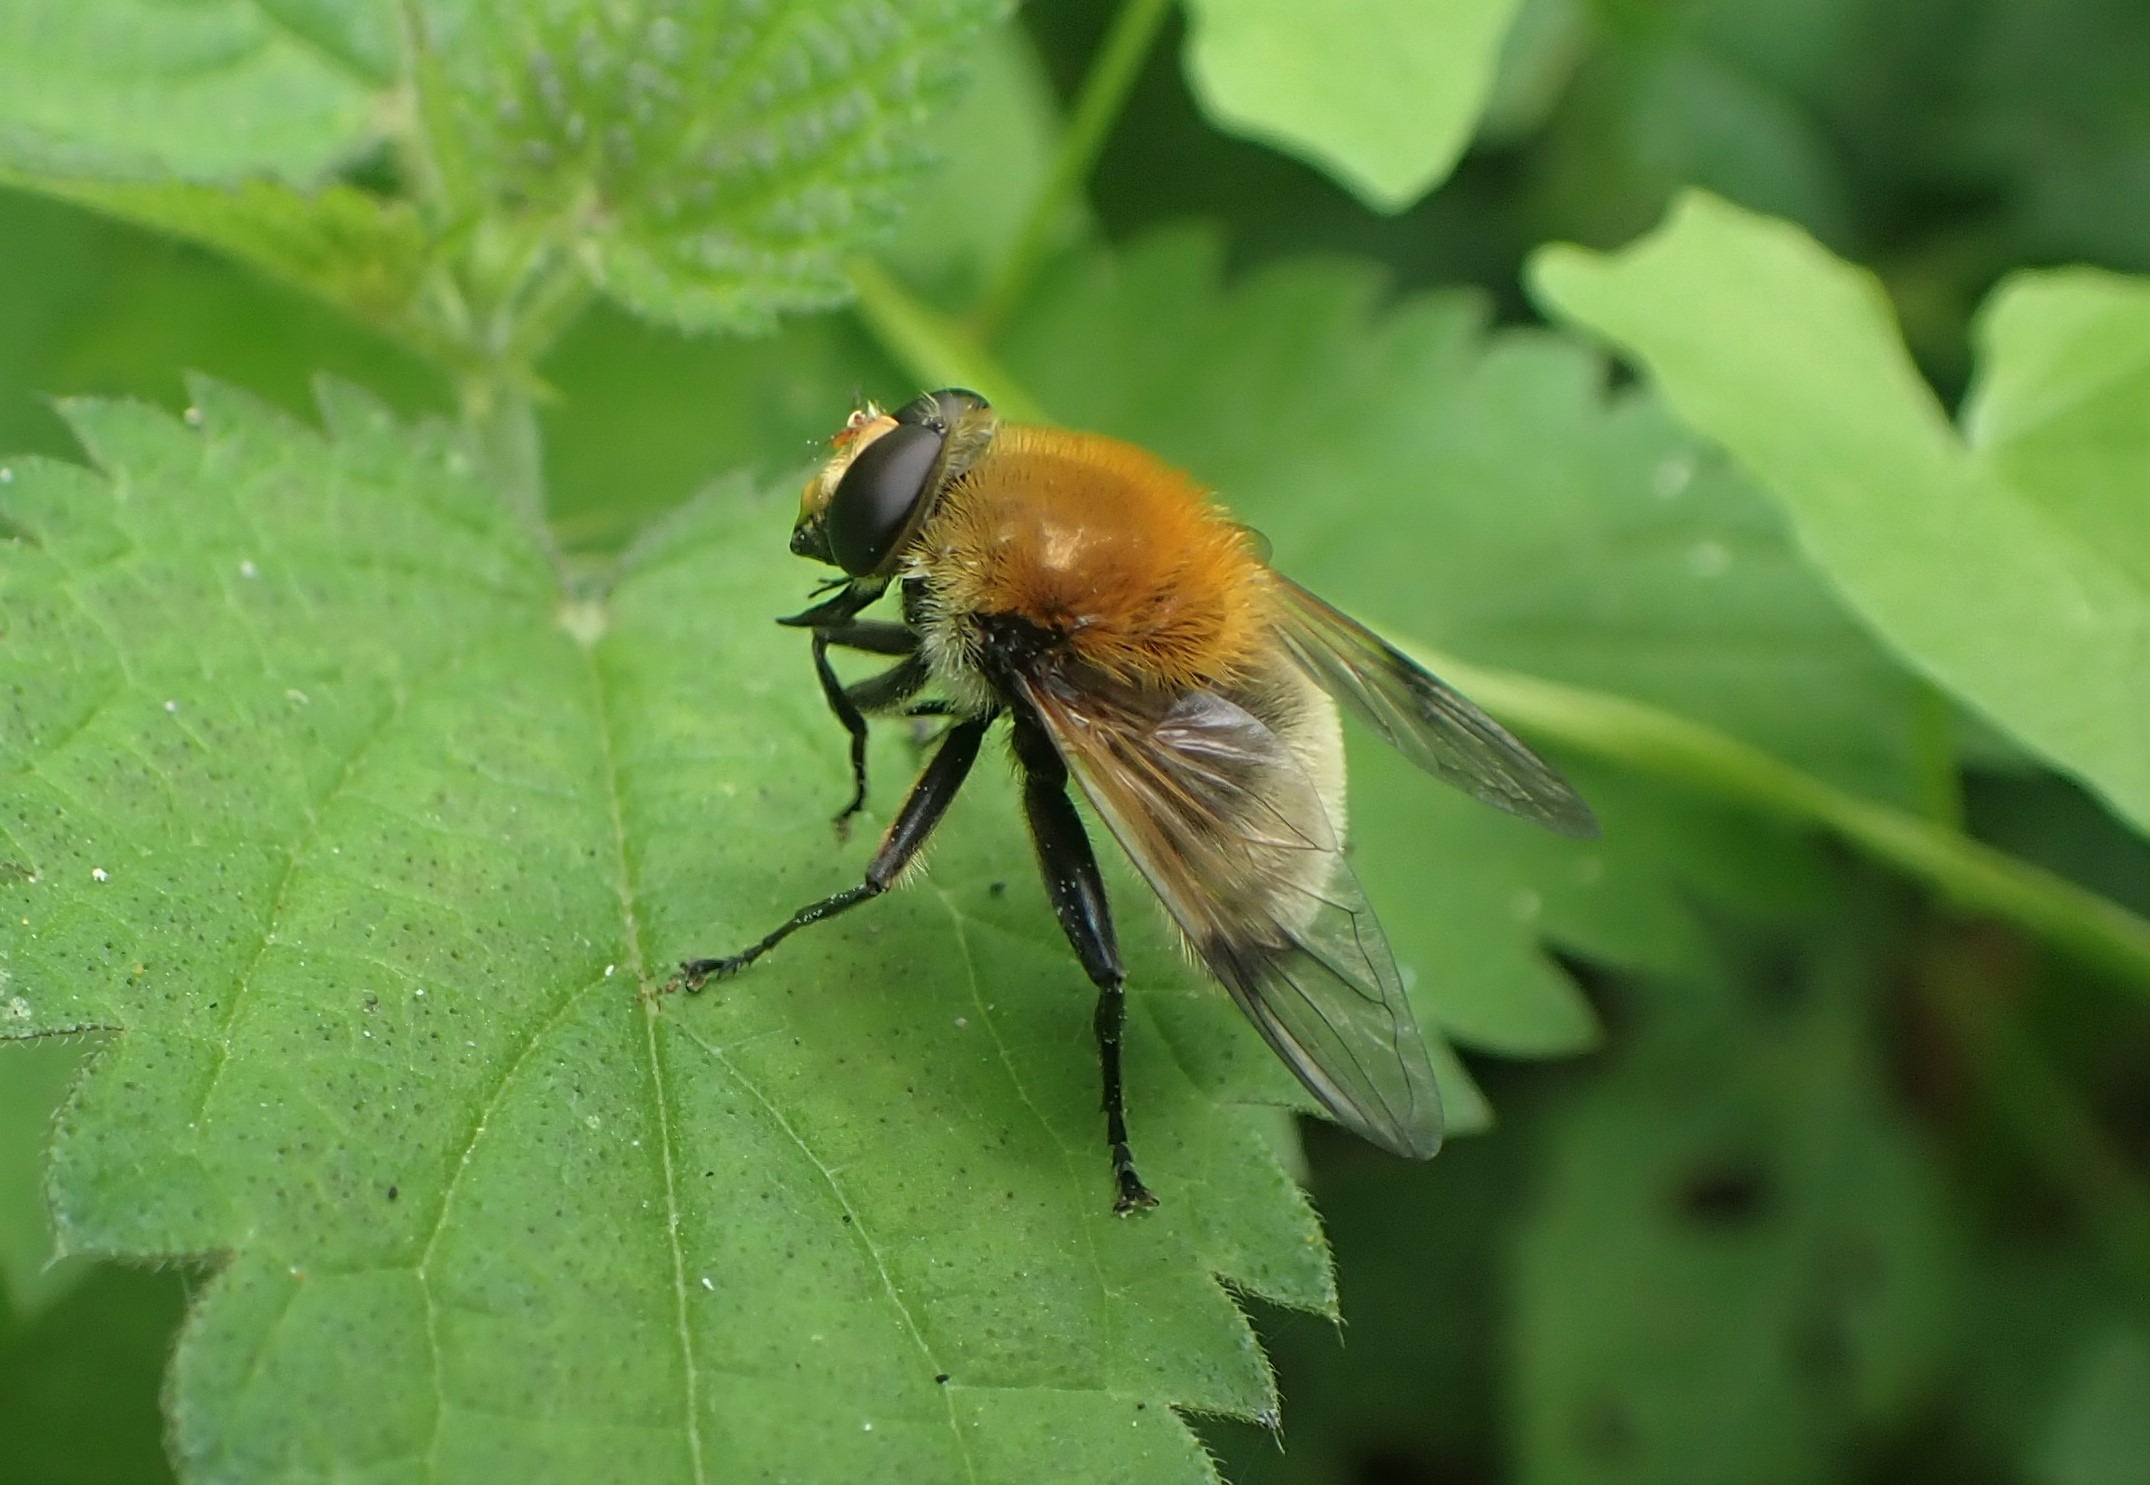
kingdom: Animalia
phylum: Arthropoda
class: Insecta
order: Diptera
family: Syrphidae
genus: Sericomyia
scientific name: Sericomyia superbiens
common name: Brun bjørnesvirreflue
